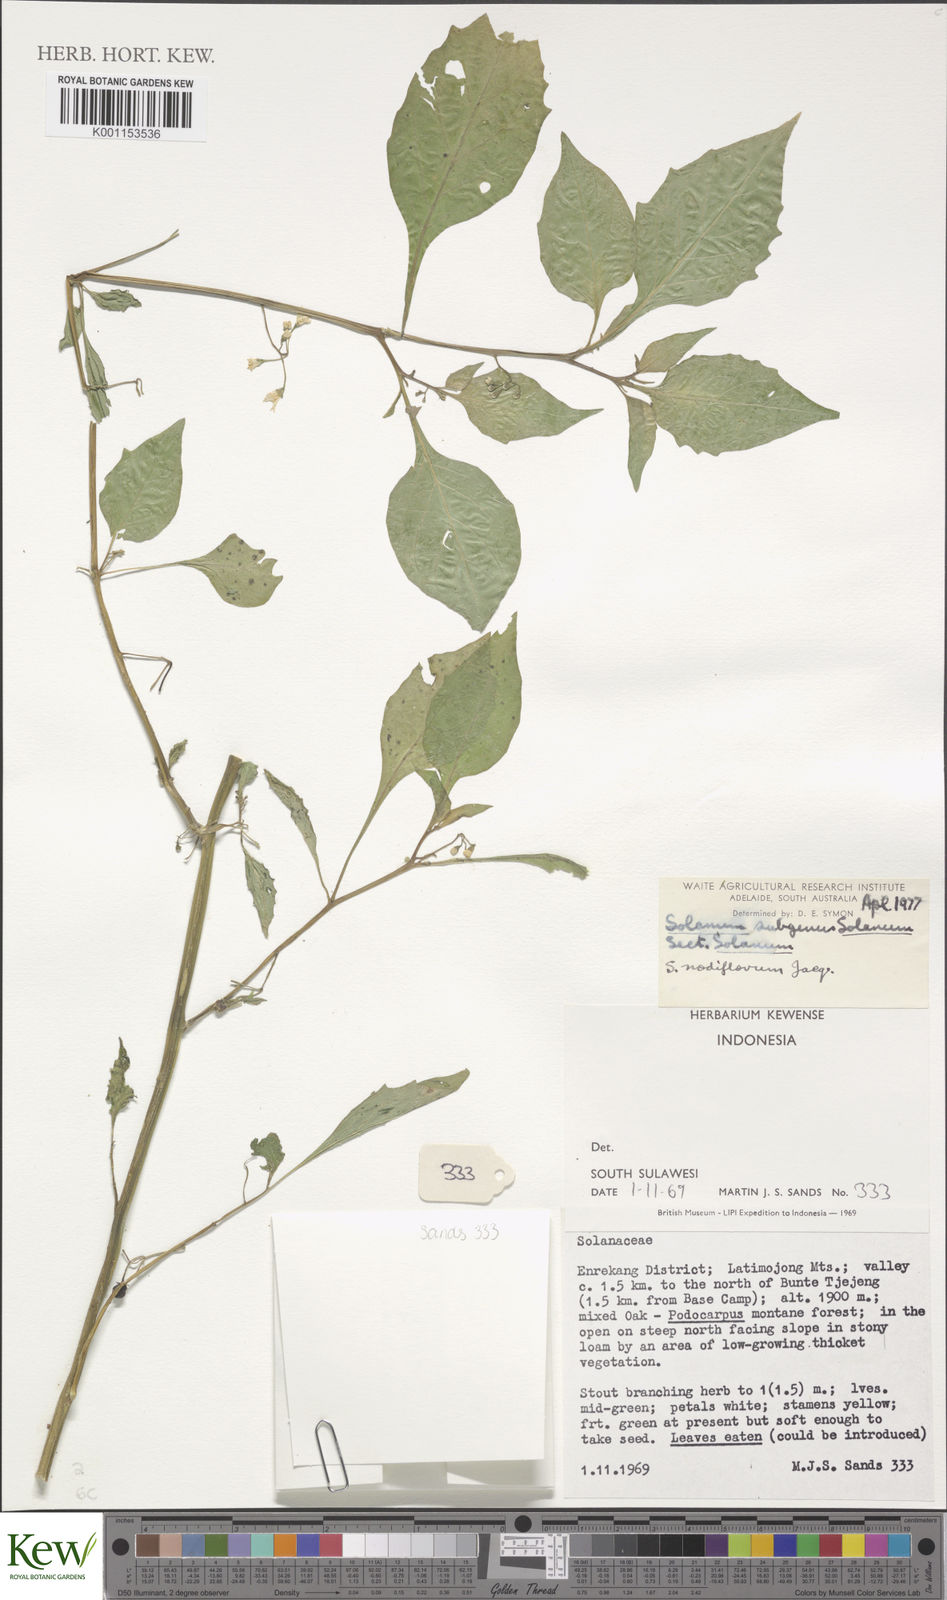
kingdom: Plantae
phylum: Tracheophyta
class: Magnoliopsida
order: Solanales
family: Solanaceae
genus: Solanum
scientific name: Solanum americanum
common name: American black nightshade
